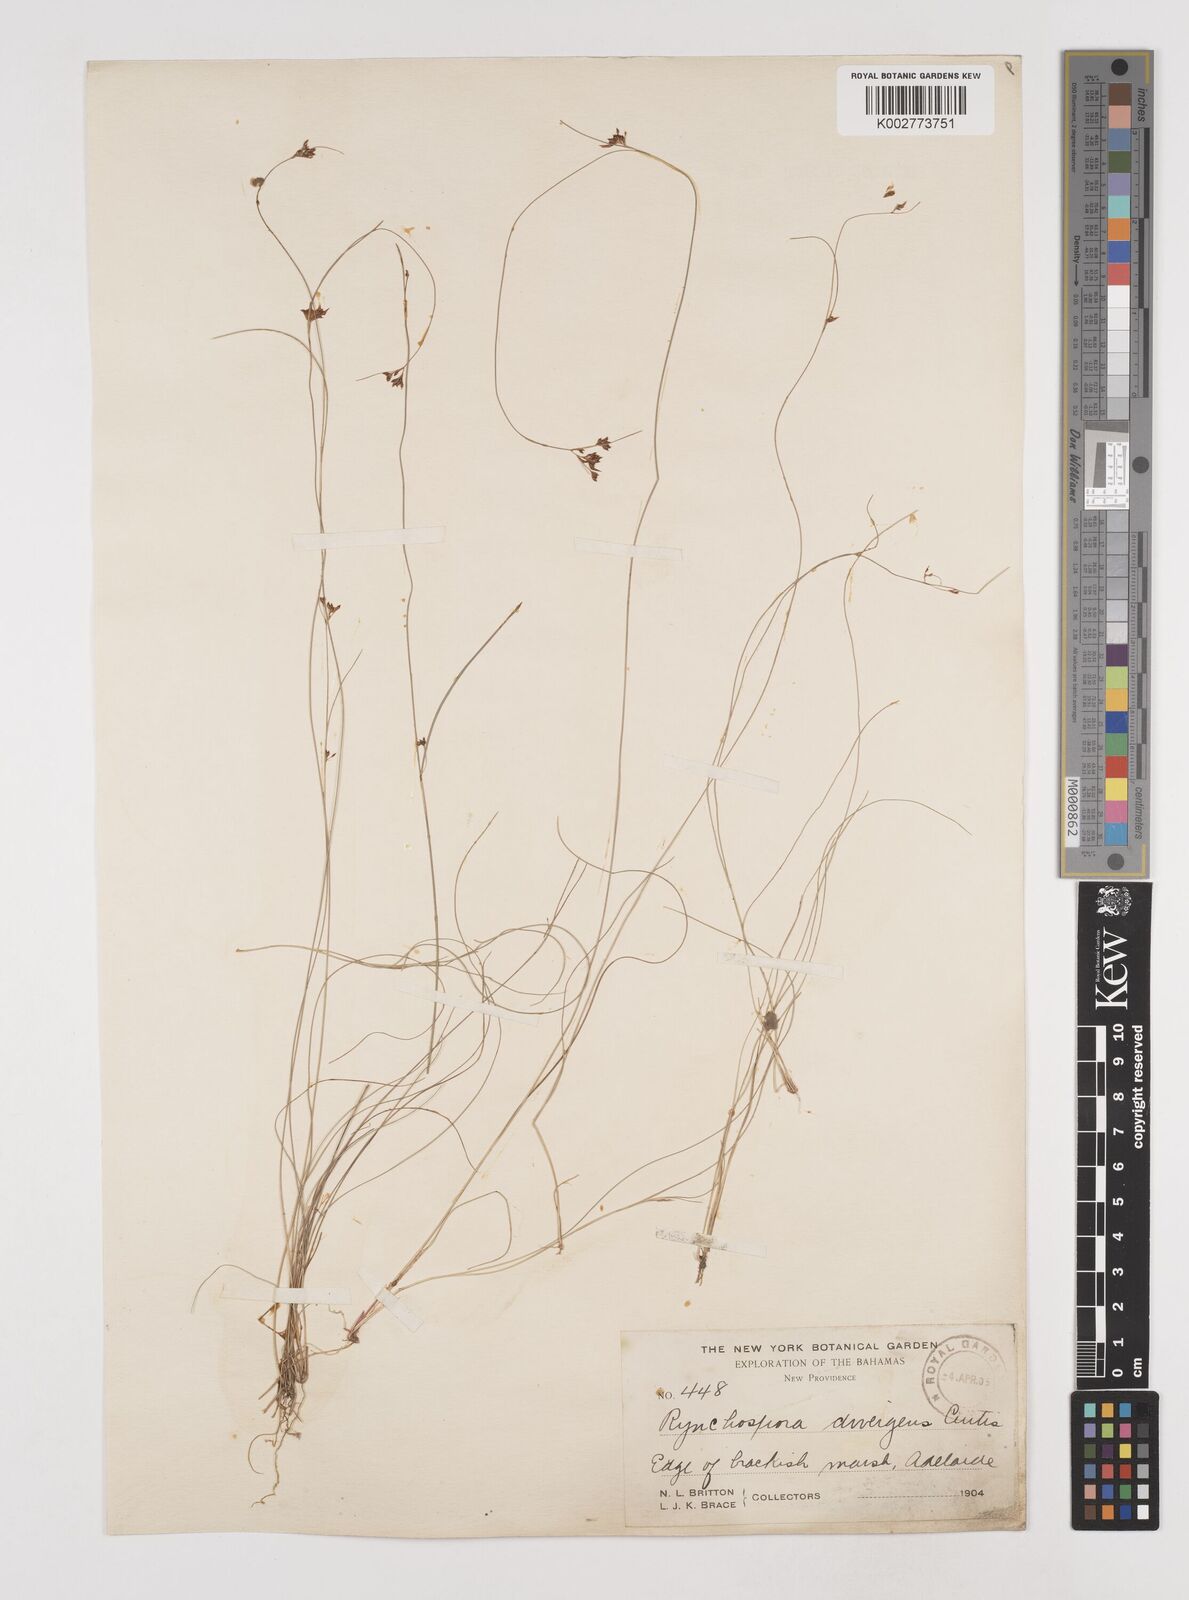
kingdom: Plantae
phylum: Tracheophyta
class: Liliopsida
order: Poales
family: Cyperaceae
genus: Rhynchospora
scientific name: Rhynchospora divergens
